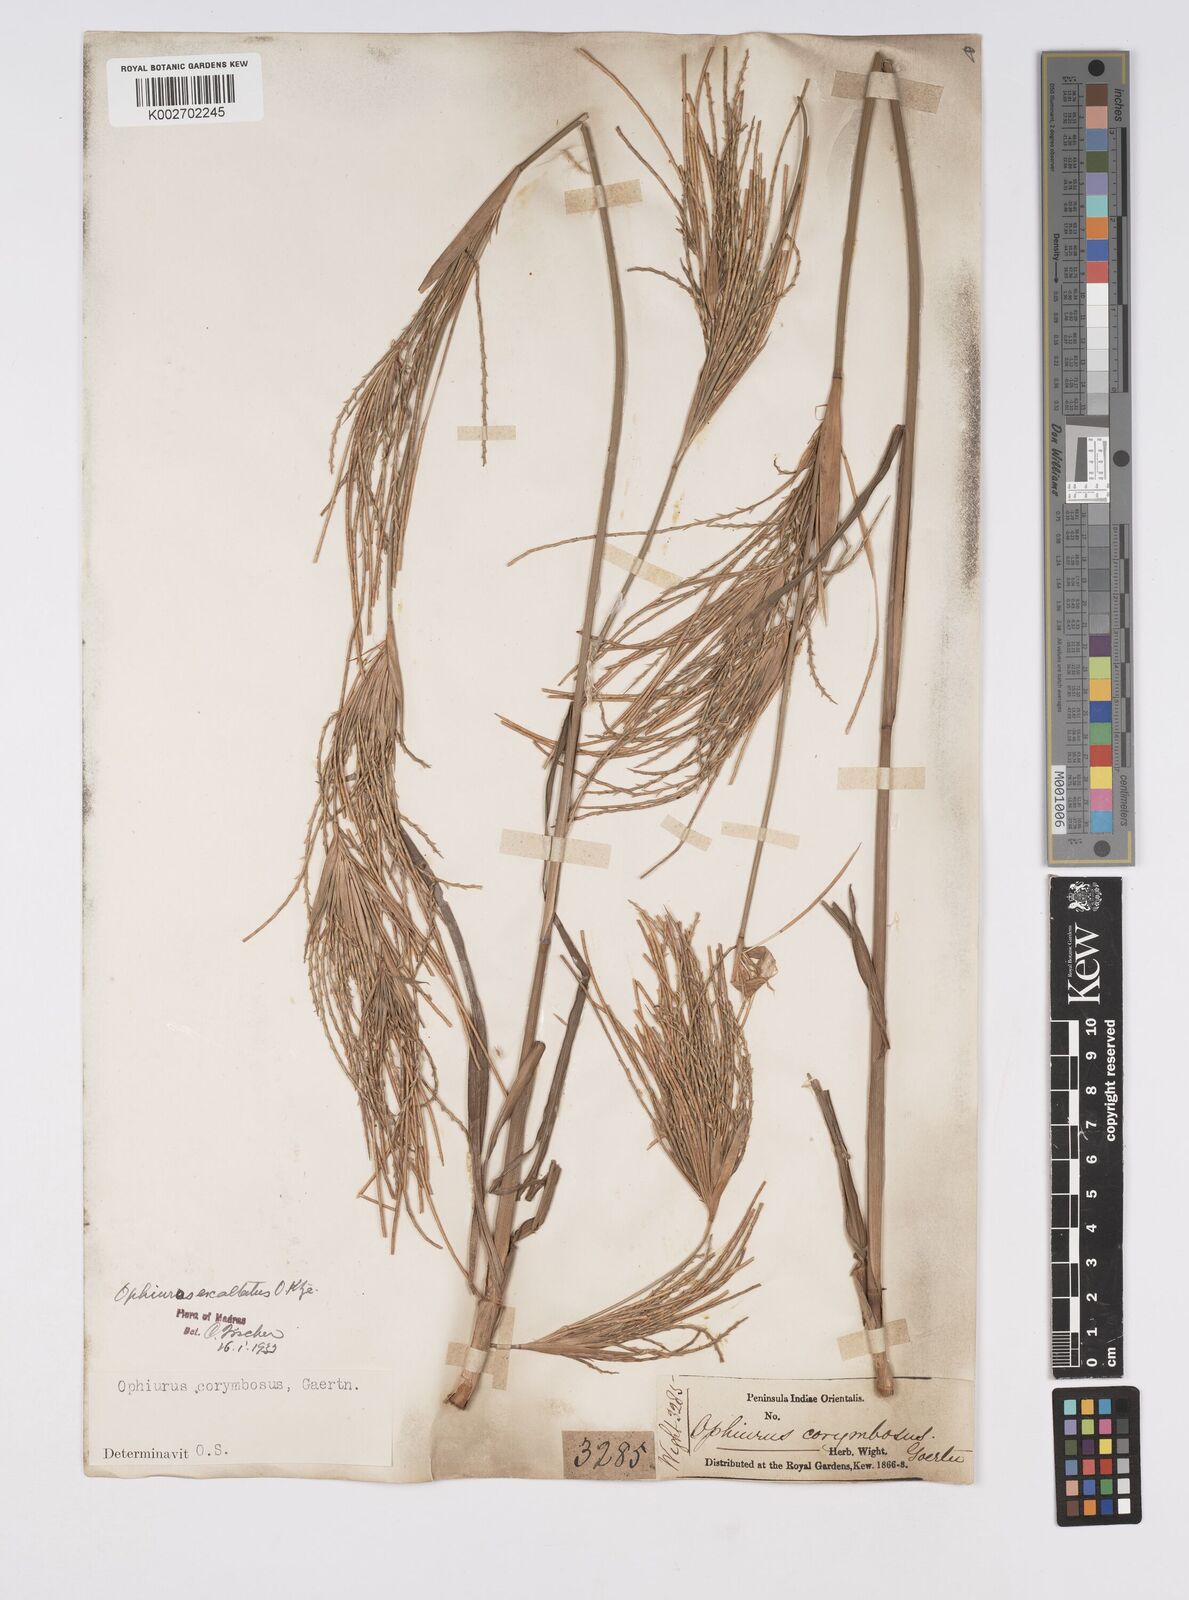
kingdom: Plantae
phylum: Tracheophyta
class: Liliopsida
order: Poales
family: Poaceae
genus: Ophiuros
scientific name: Ophiuros exaltatus
